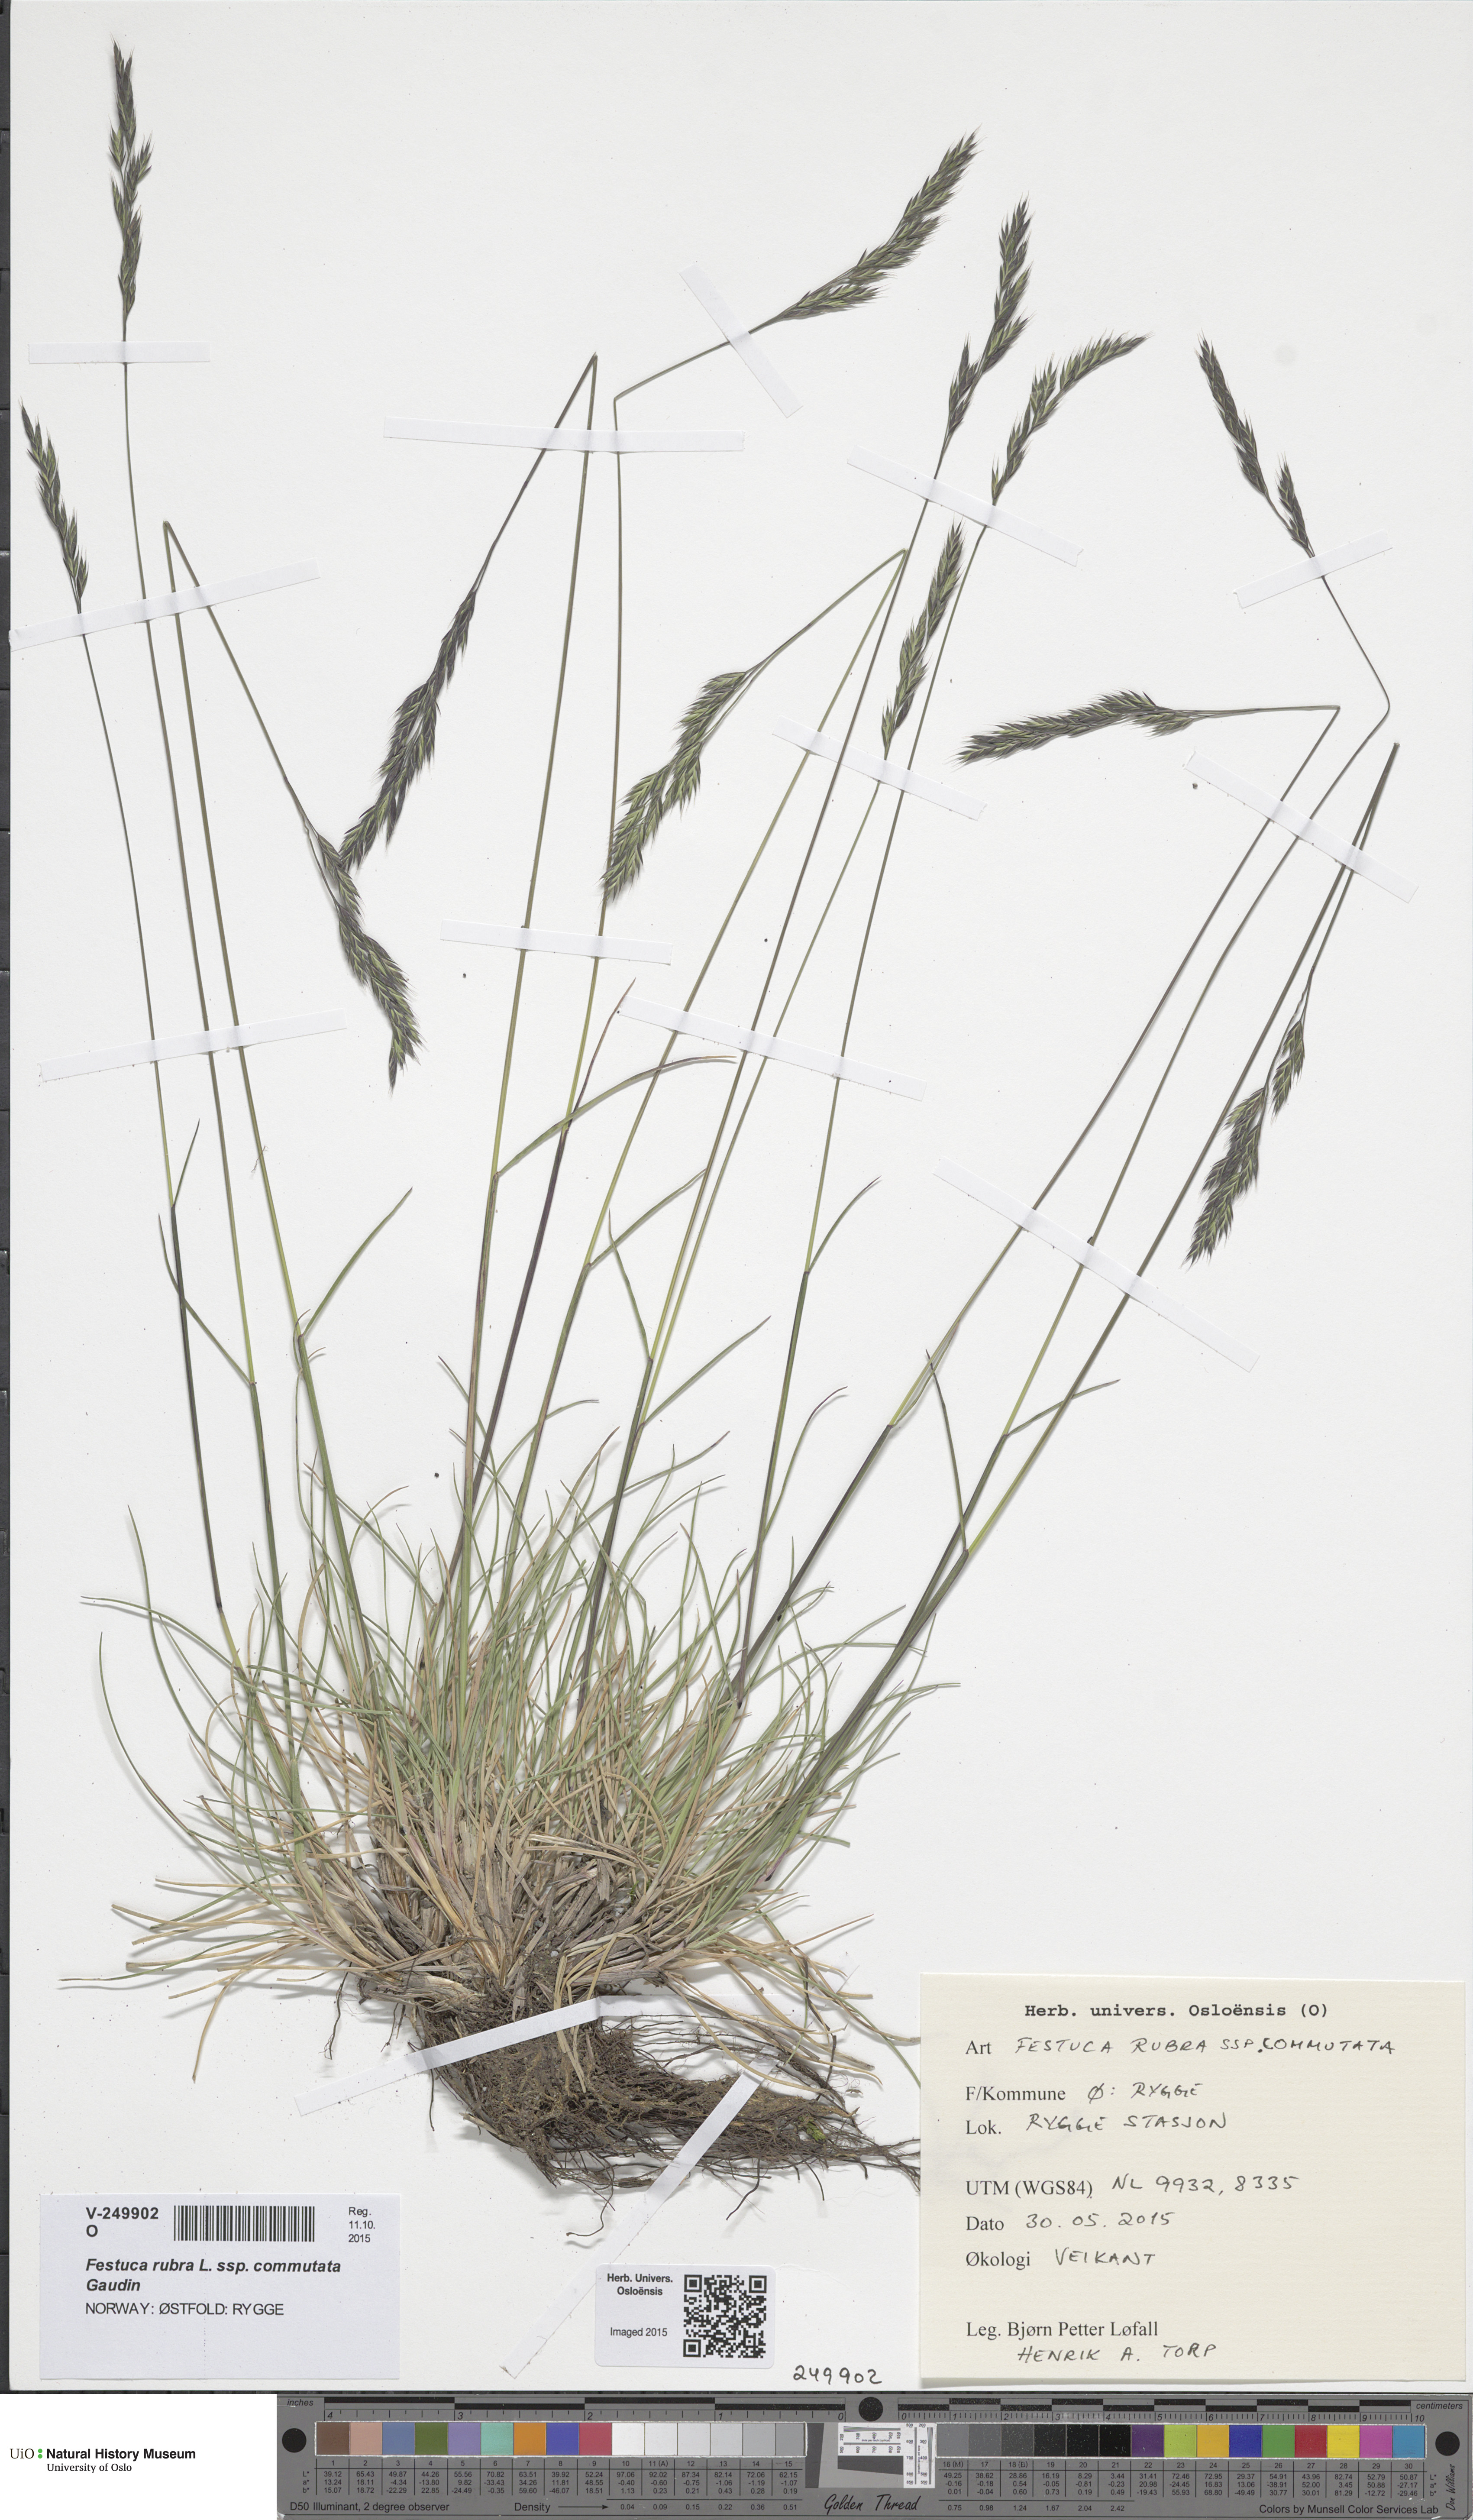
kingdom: Plantae
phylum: Tracheophyta
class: Liliopsida
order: Poales
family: Poaceae
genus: Festuca
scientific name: Festuca rubra
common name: Red fescue
